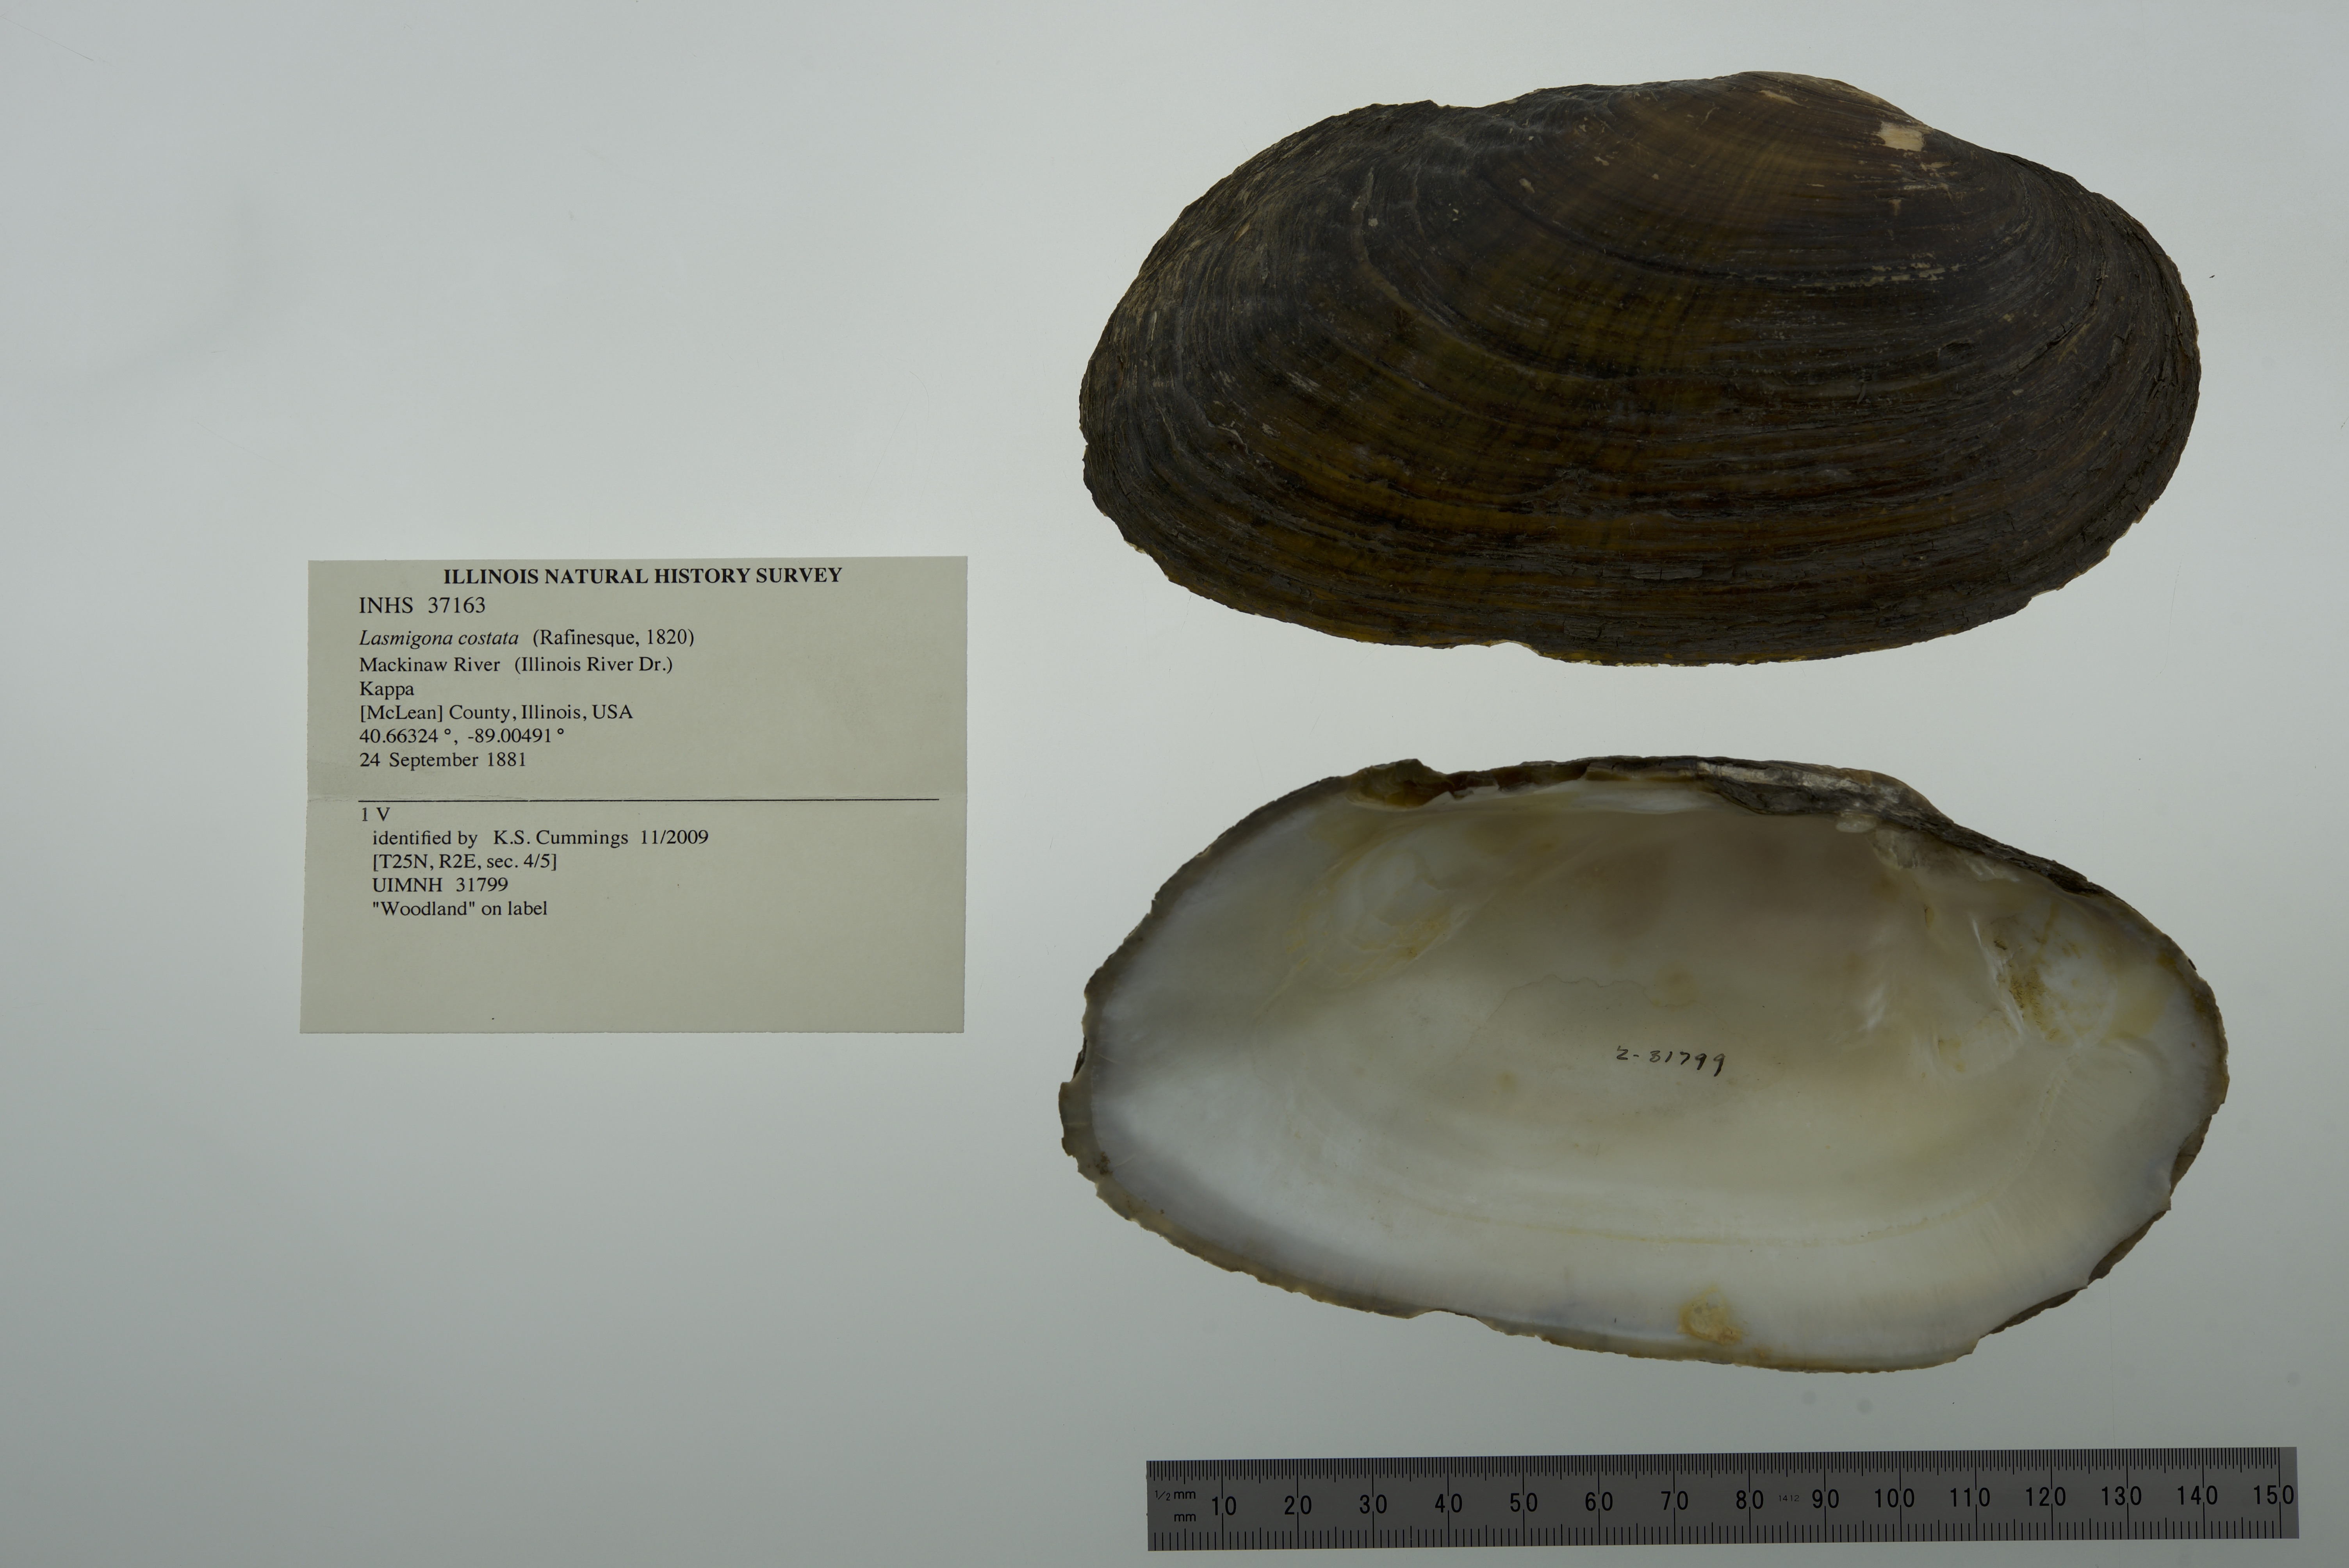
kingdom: Animalia
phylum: Mollusca
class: Bivalvia
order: Unionida
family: Unionidae
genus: Lasmigona
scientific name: Lasmigona costata
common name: Flutedshell
